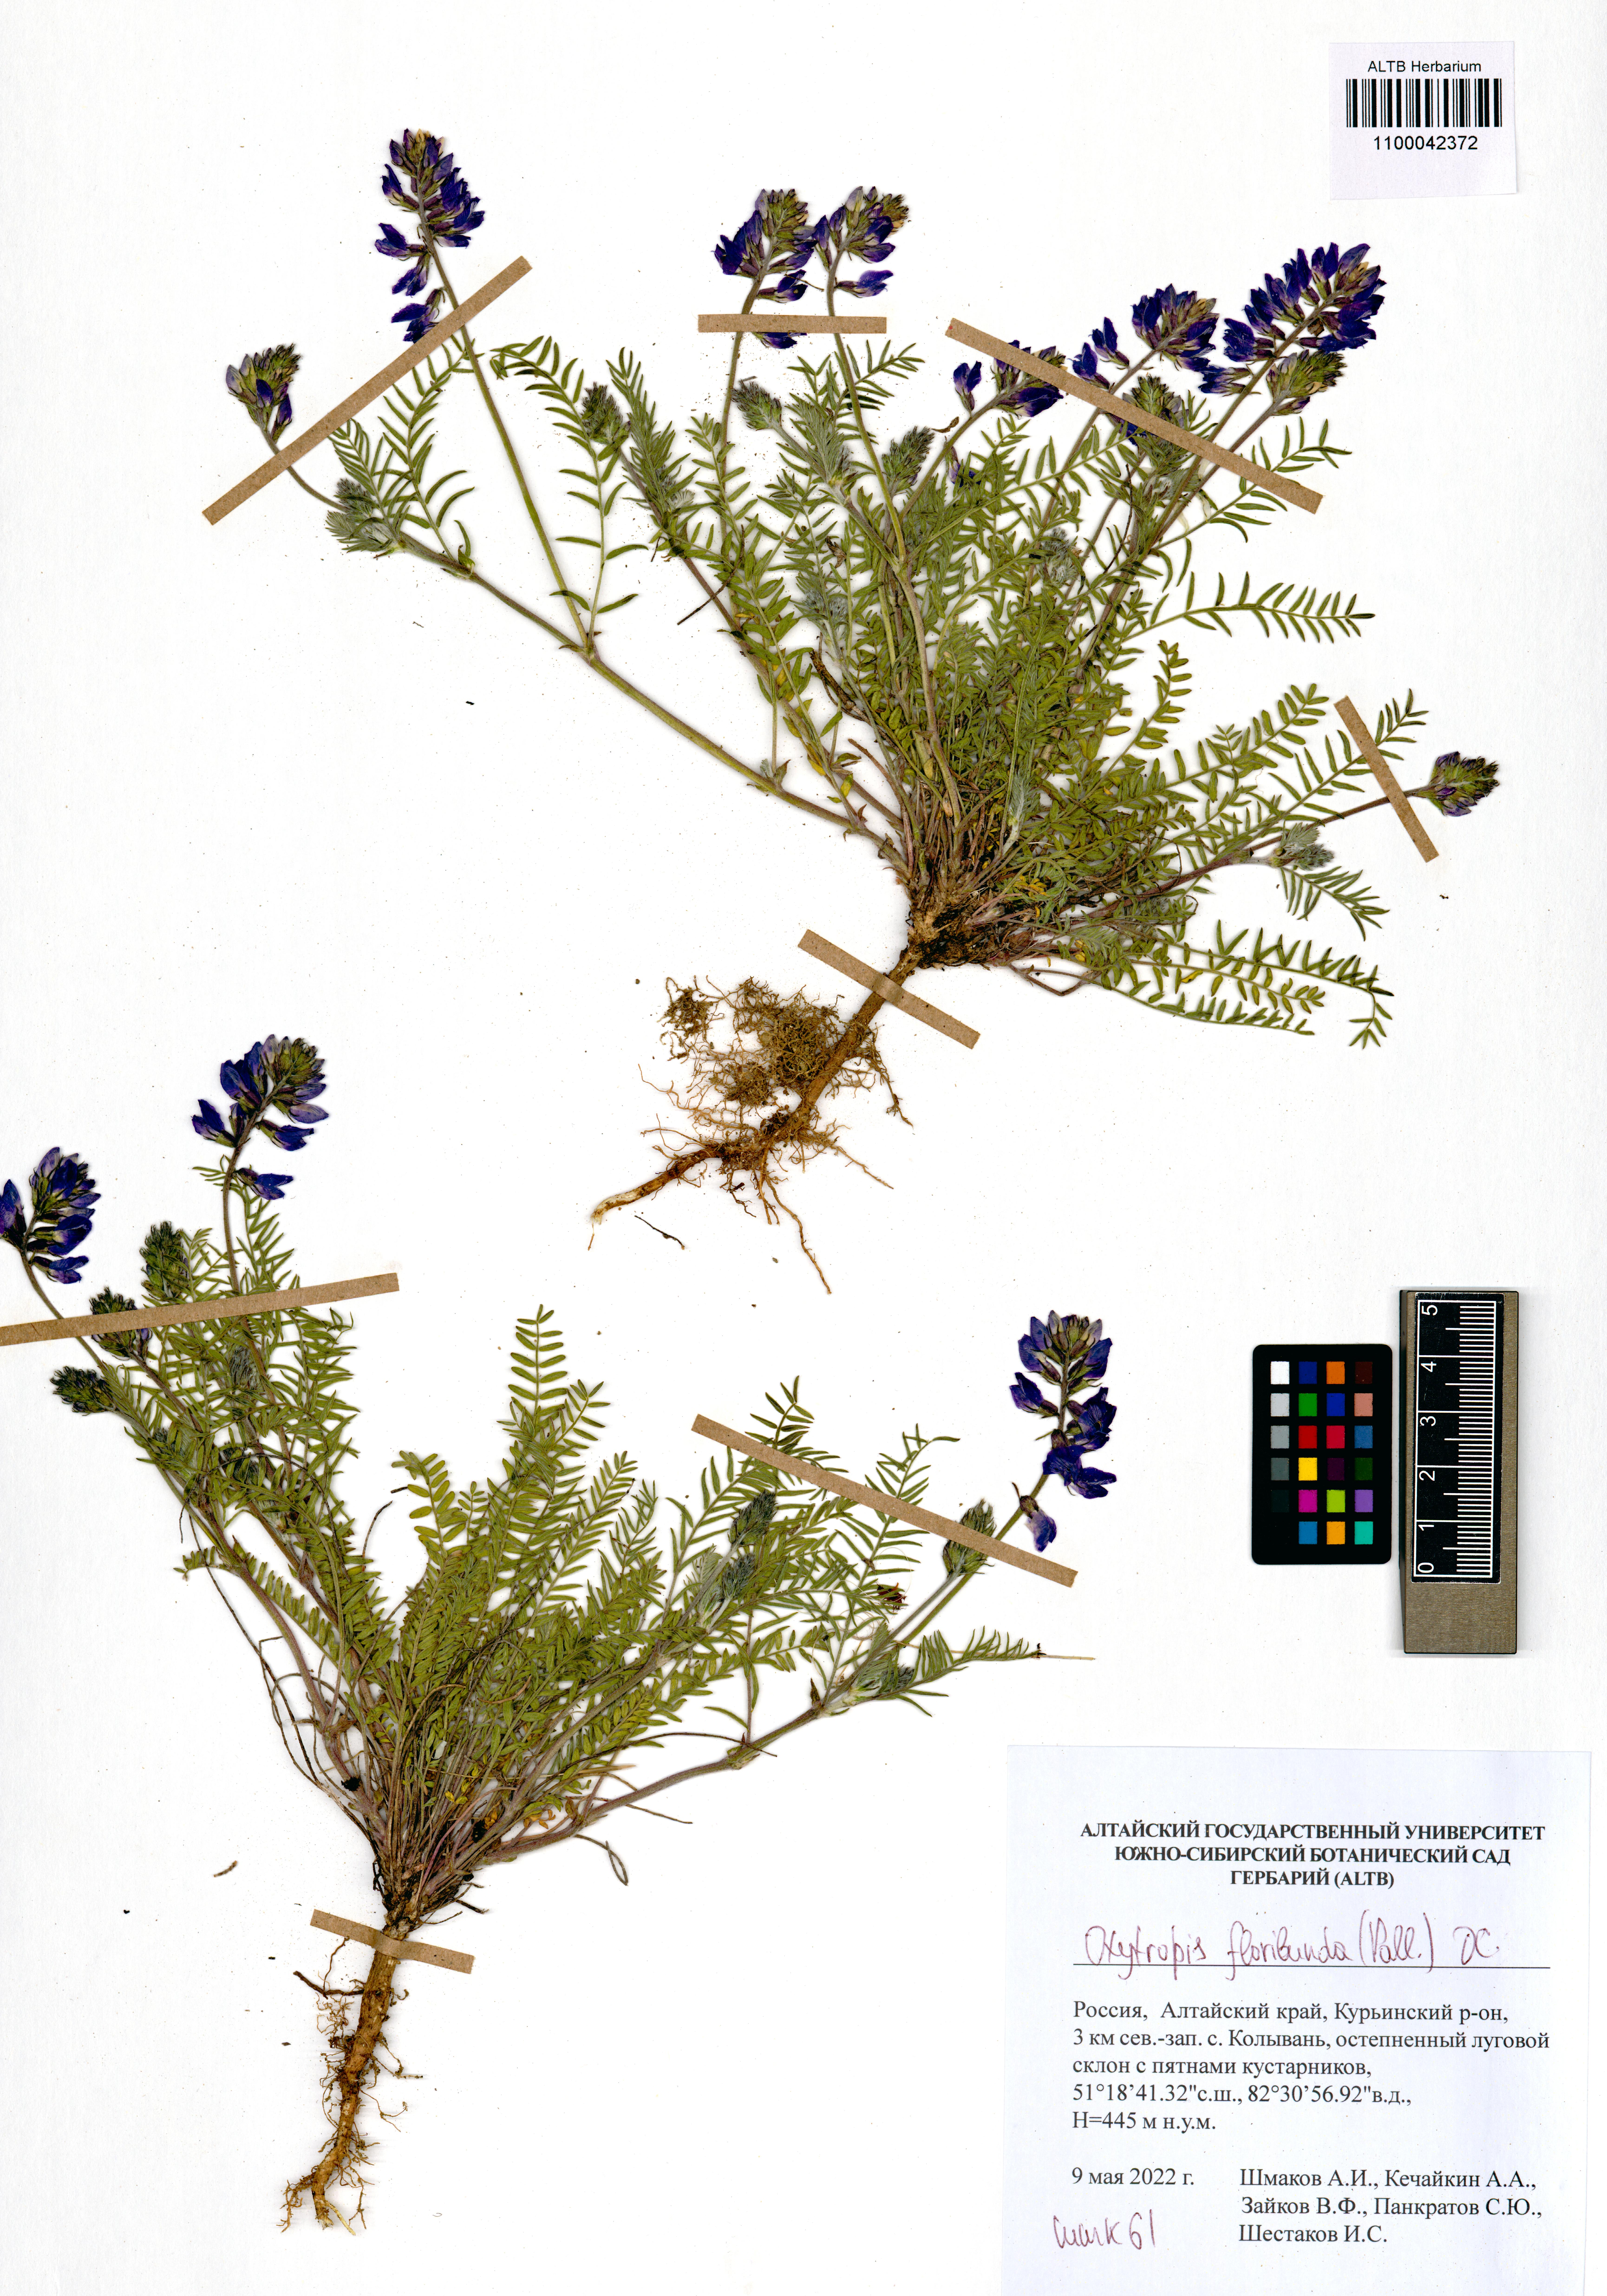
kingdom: Plantae
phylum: Tracheophyta
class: Magnoliopsida
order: Fabales
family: Fabaceae
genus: Oxytropis
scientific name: Oxytropis floribunda
